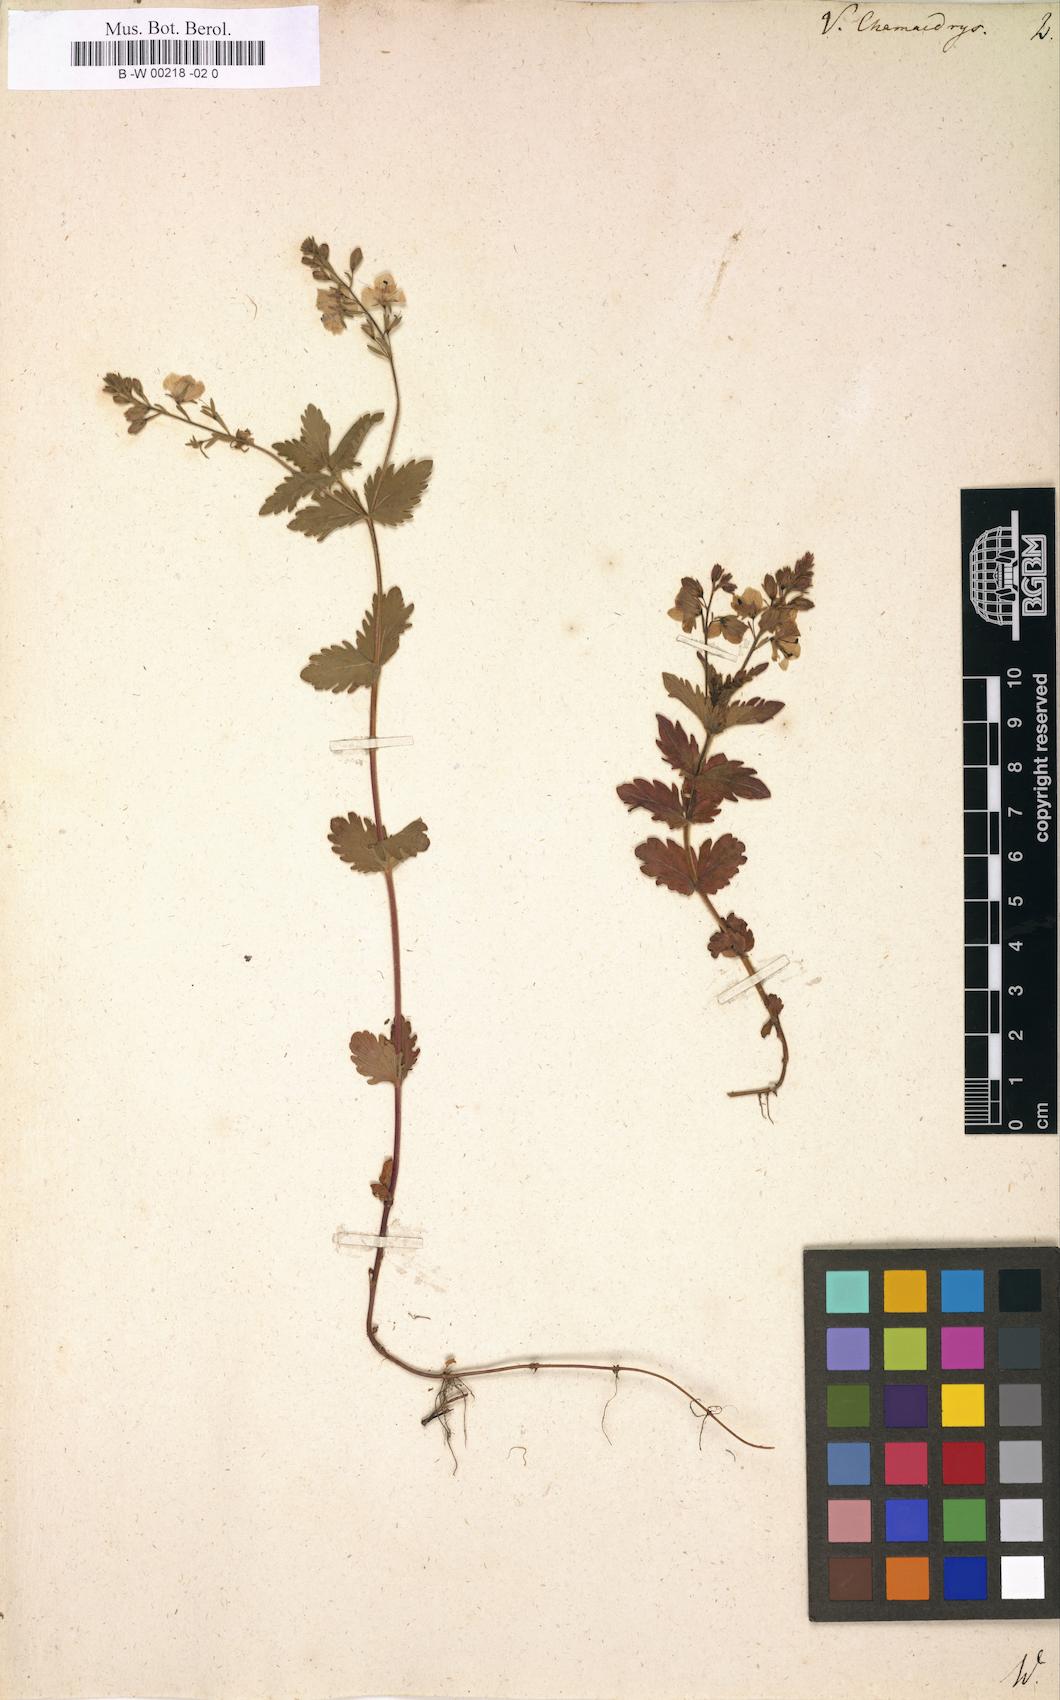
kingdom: Plantae
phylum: Tracheophyta
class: Magnoliopsida
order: Lamiales
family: Plantaginaceae
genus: Veronica
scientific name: Veronica chamaedrys
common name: Germander speedwell
